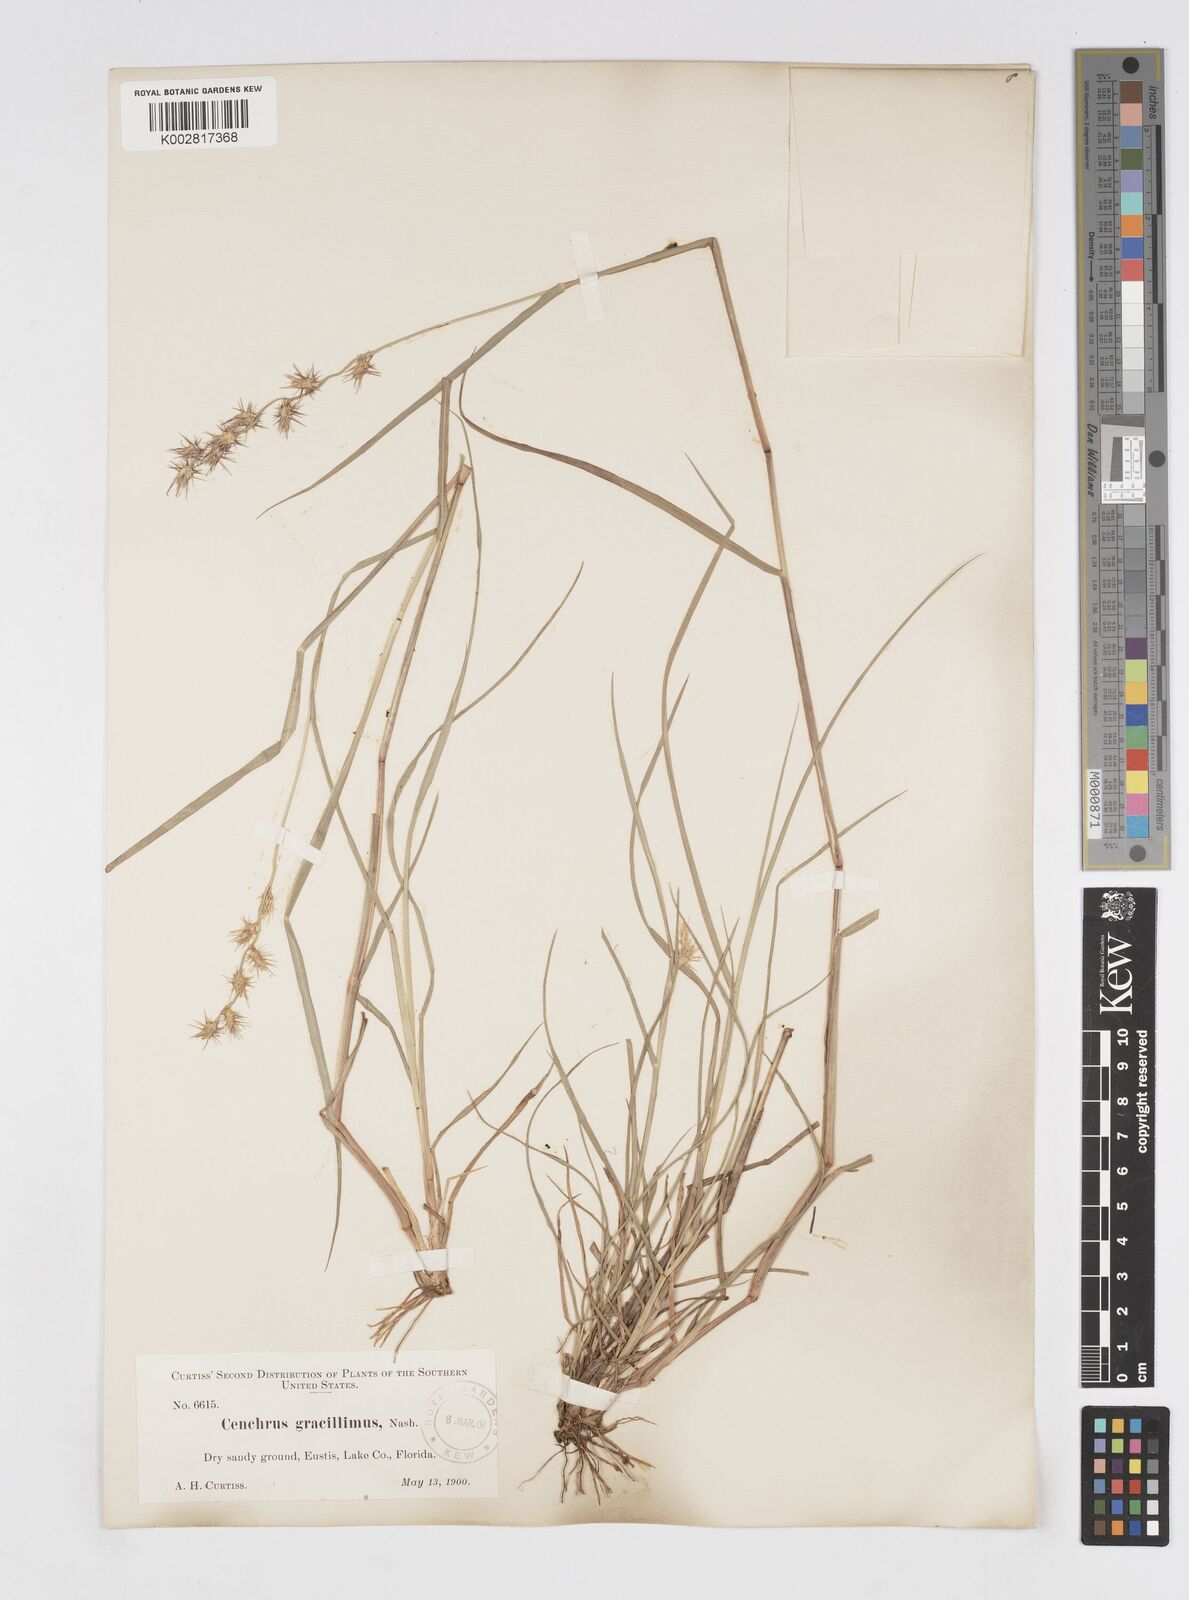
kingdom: Plantae
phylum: Tracheophyta
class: Liliopsida
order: Poales
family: Poaceae
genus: Cenchrus
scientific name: Cenchrus gracillimus
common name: Slender sandbur
